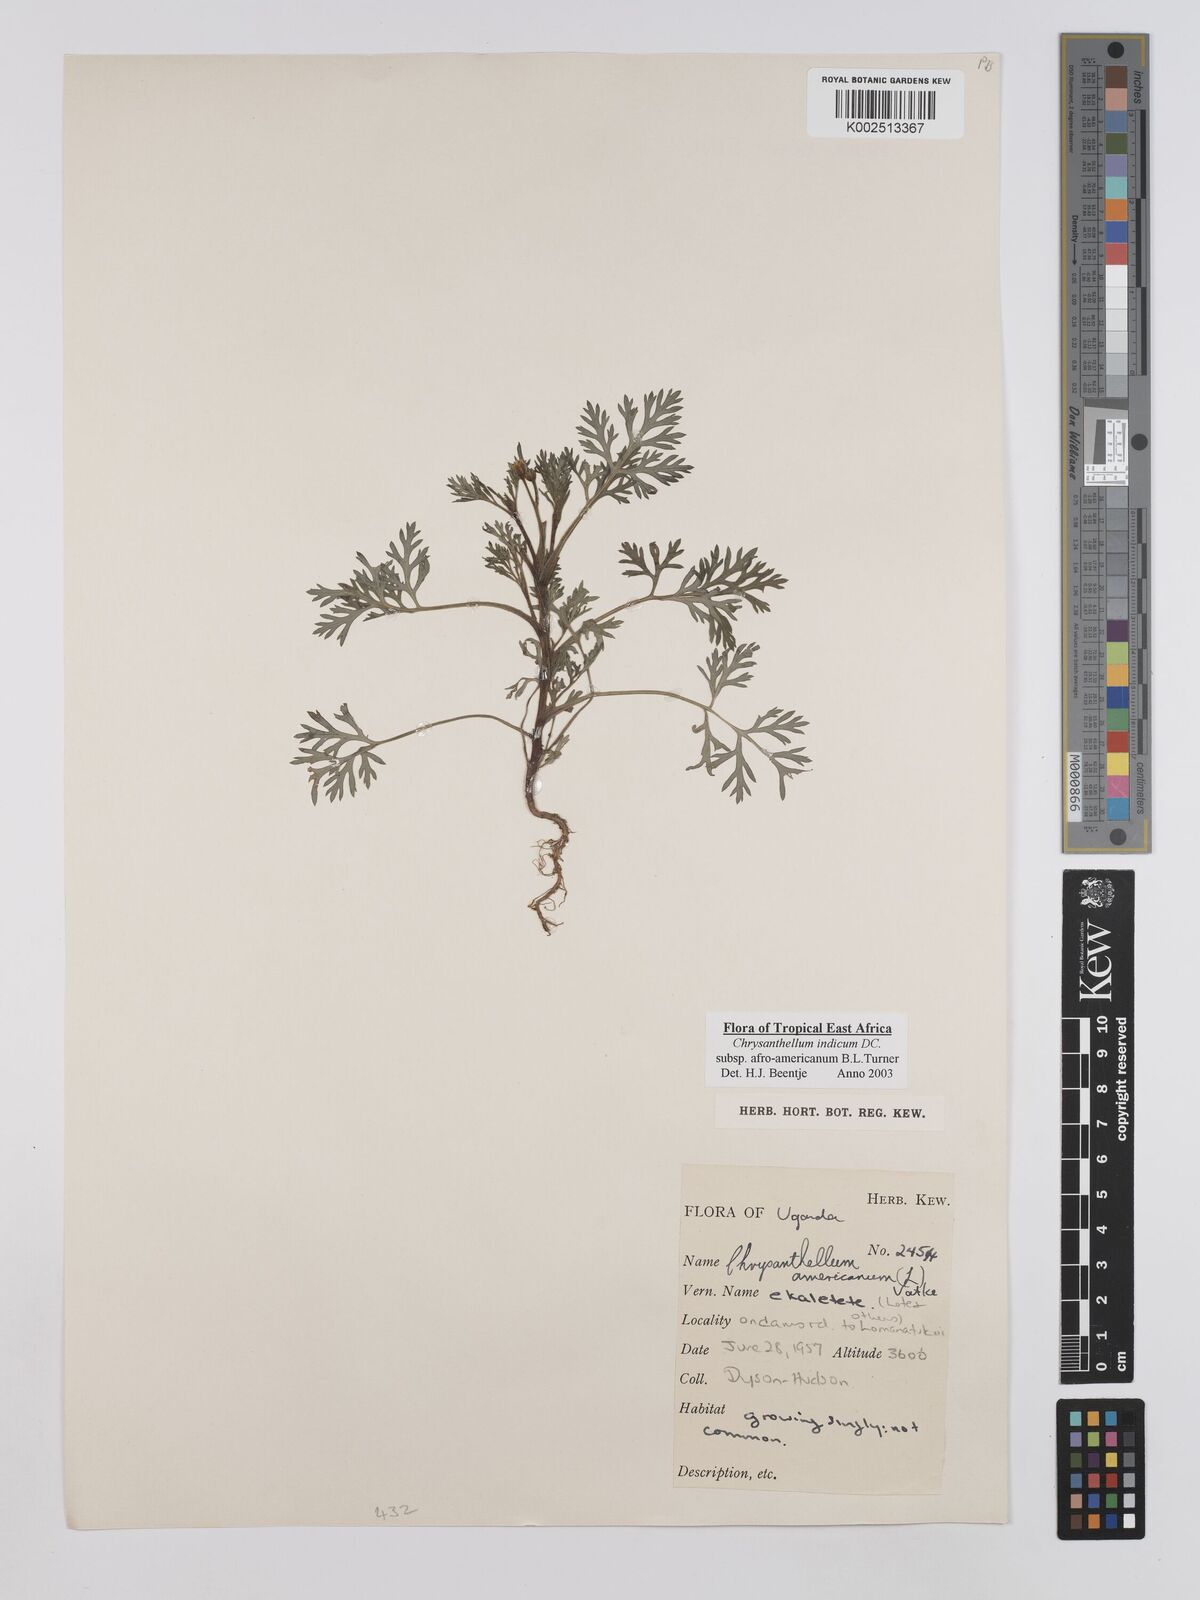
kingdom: Plantae
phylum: Tracheophyta
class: Magnoliopsida
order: Asterales
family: Asteraceae
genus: Chrysanthellum
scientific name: Chrysanthellum indicum
